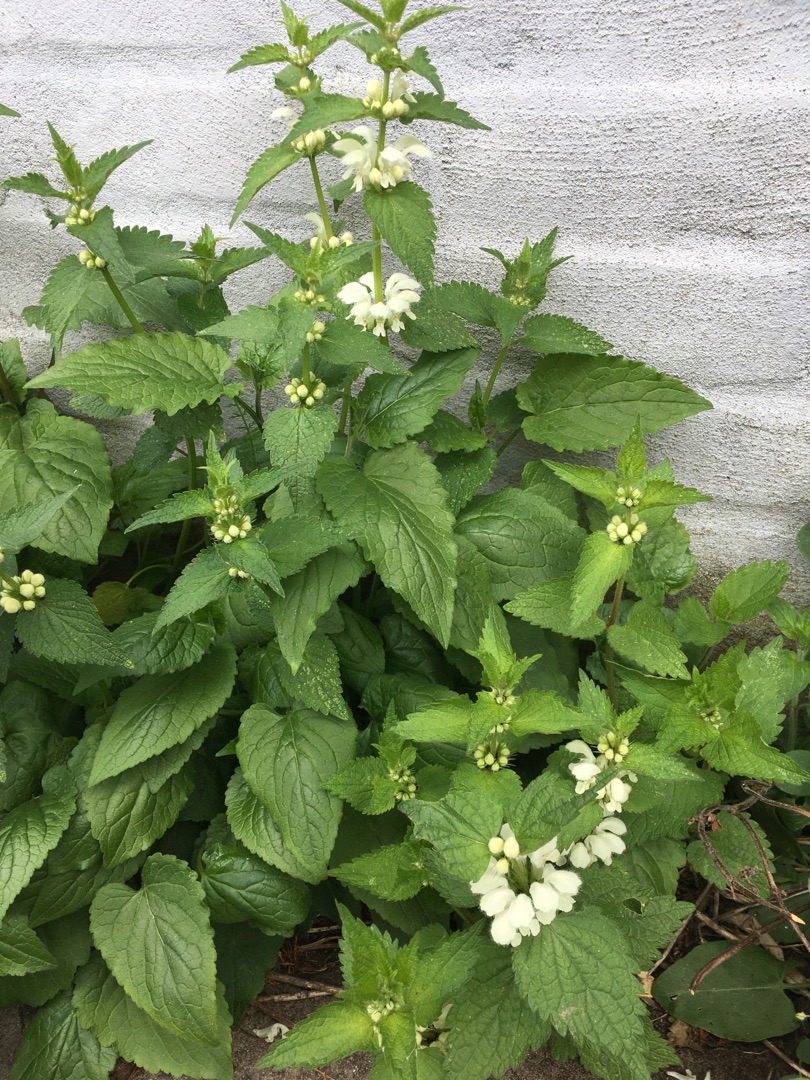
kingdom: Plantae
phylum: Tracheophyta
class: Magnoliopsida
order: Lamiales
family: Lamiaceae
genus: Lamium
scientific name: Lamium album
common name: Døvnælde
